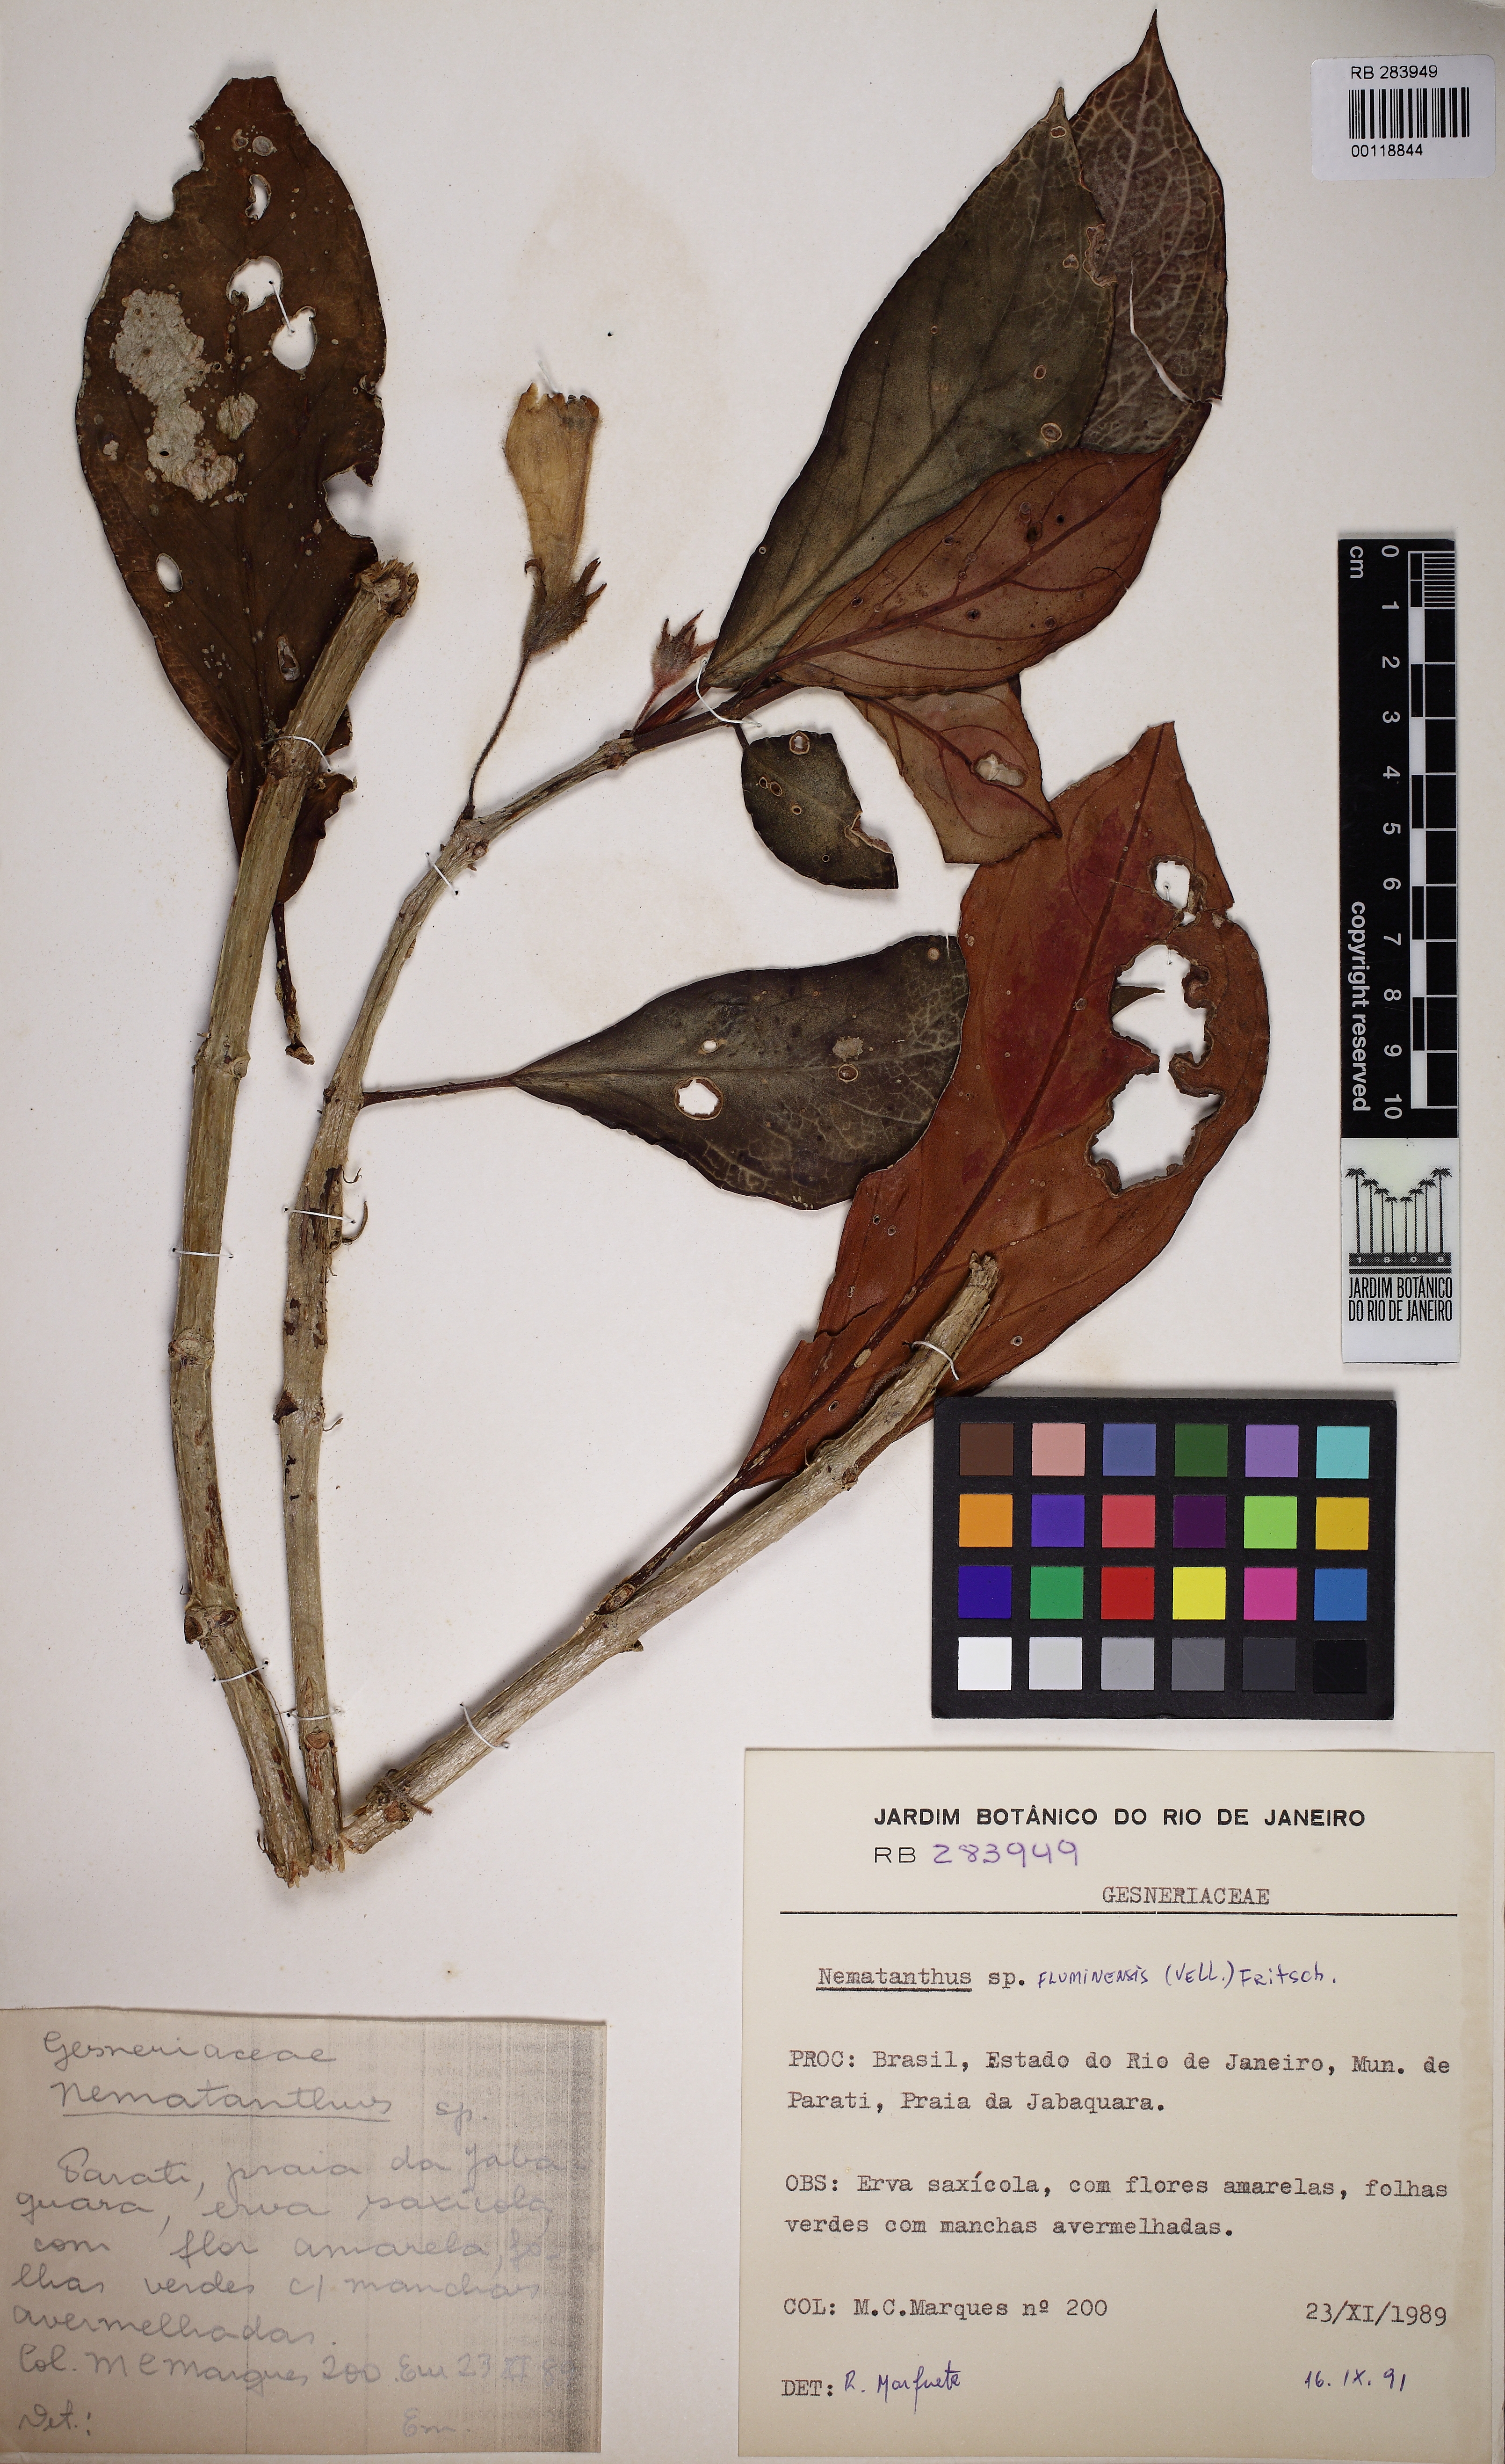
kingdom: Plantae
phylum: Tracheophyta
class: Magnoliopsida
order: Lamiales
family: Gesneriaceae
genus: Nematanthus
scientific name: Nematanthus fluminensis
